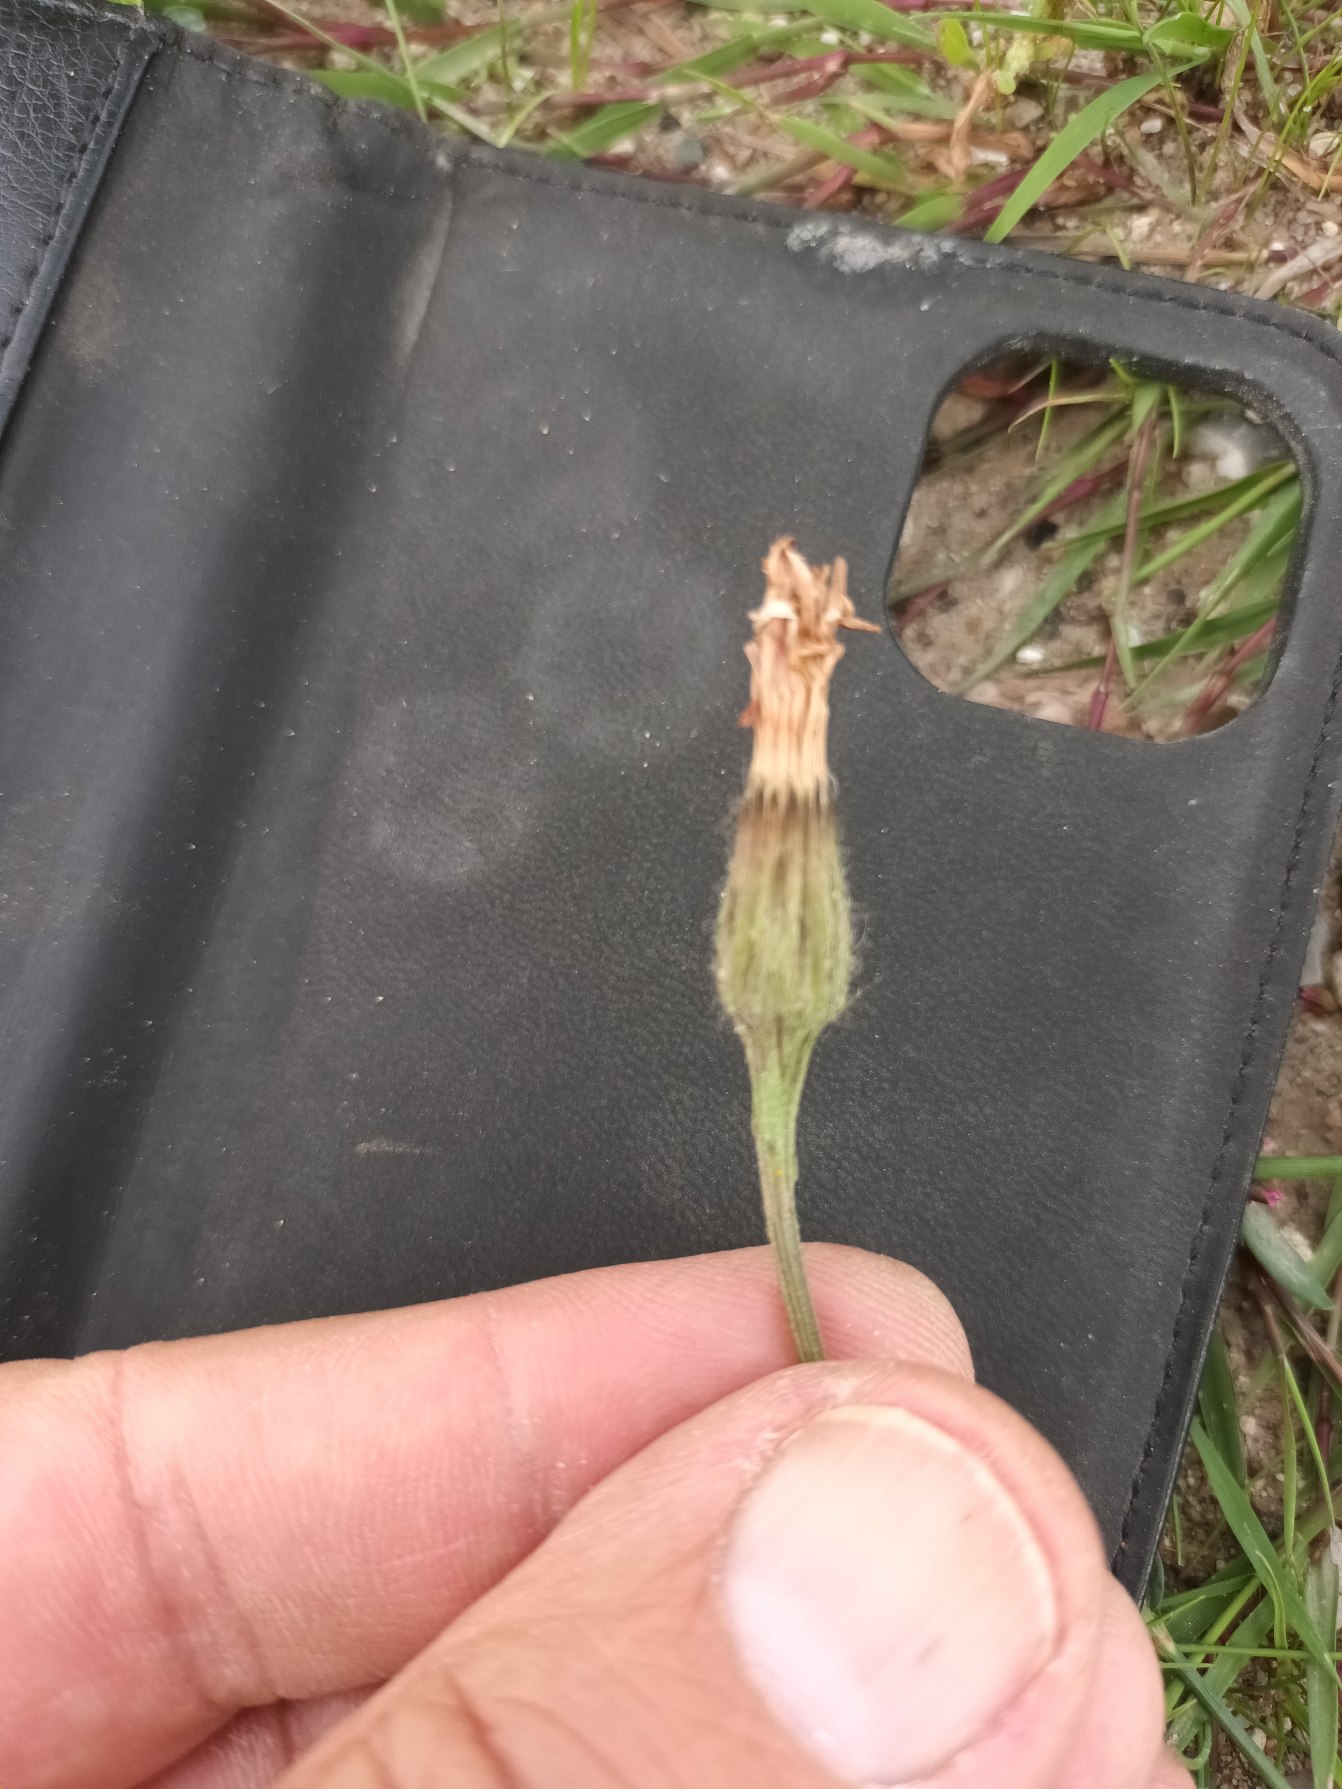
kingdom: Plantae
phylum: Tracheophyta
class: Magnoliopsida
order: Asterales
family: Asteraceae
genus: Scorzoneroides
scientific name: Scorzoneroides autumnalis
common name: Høst-borst
